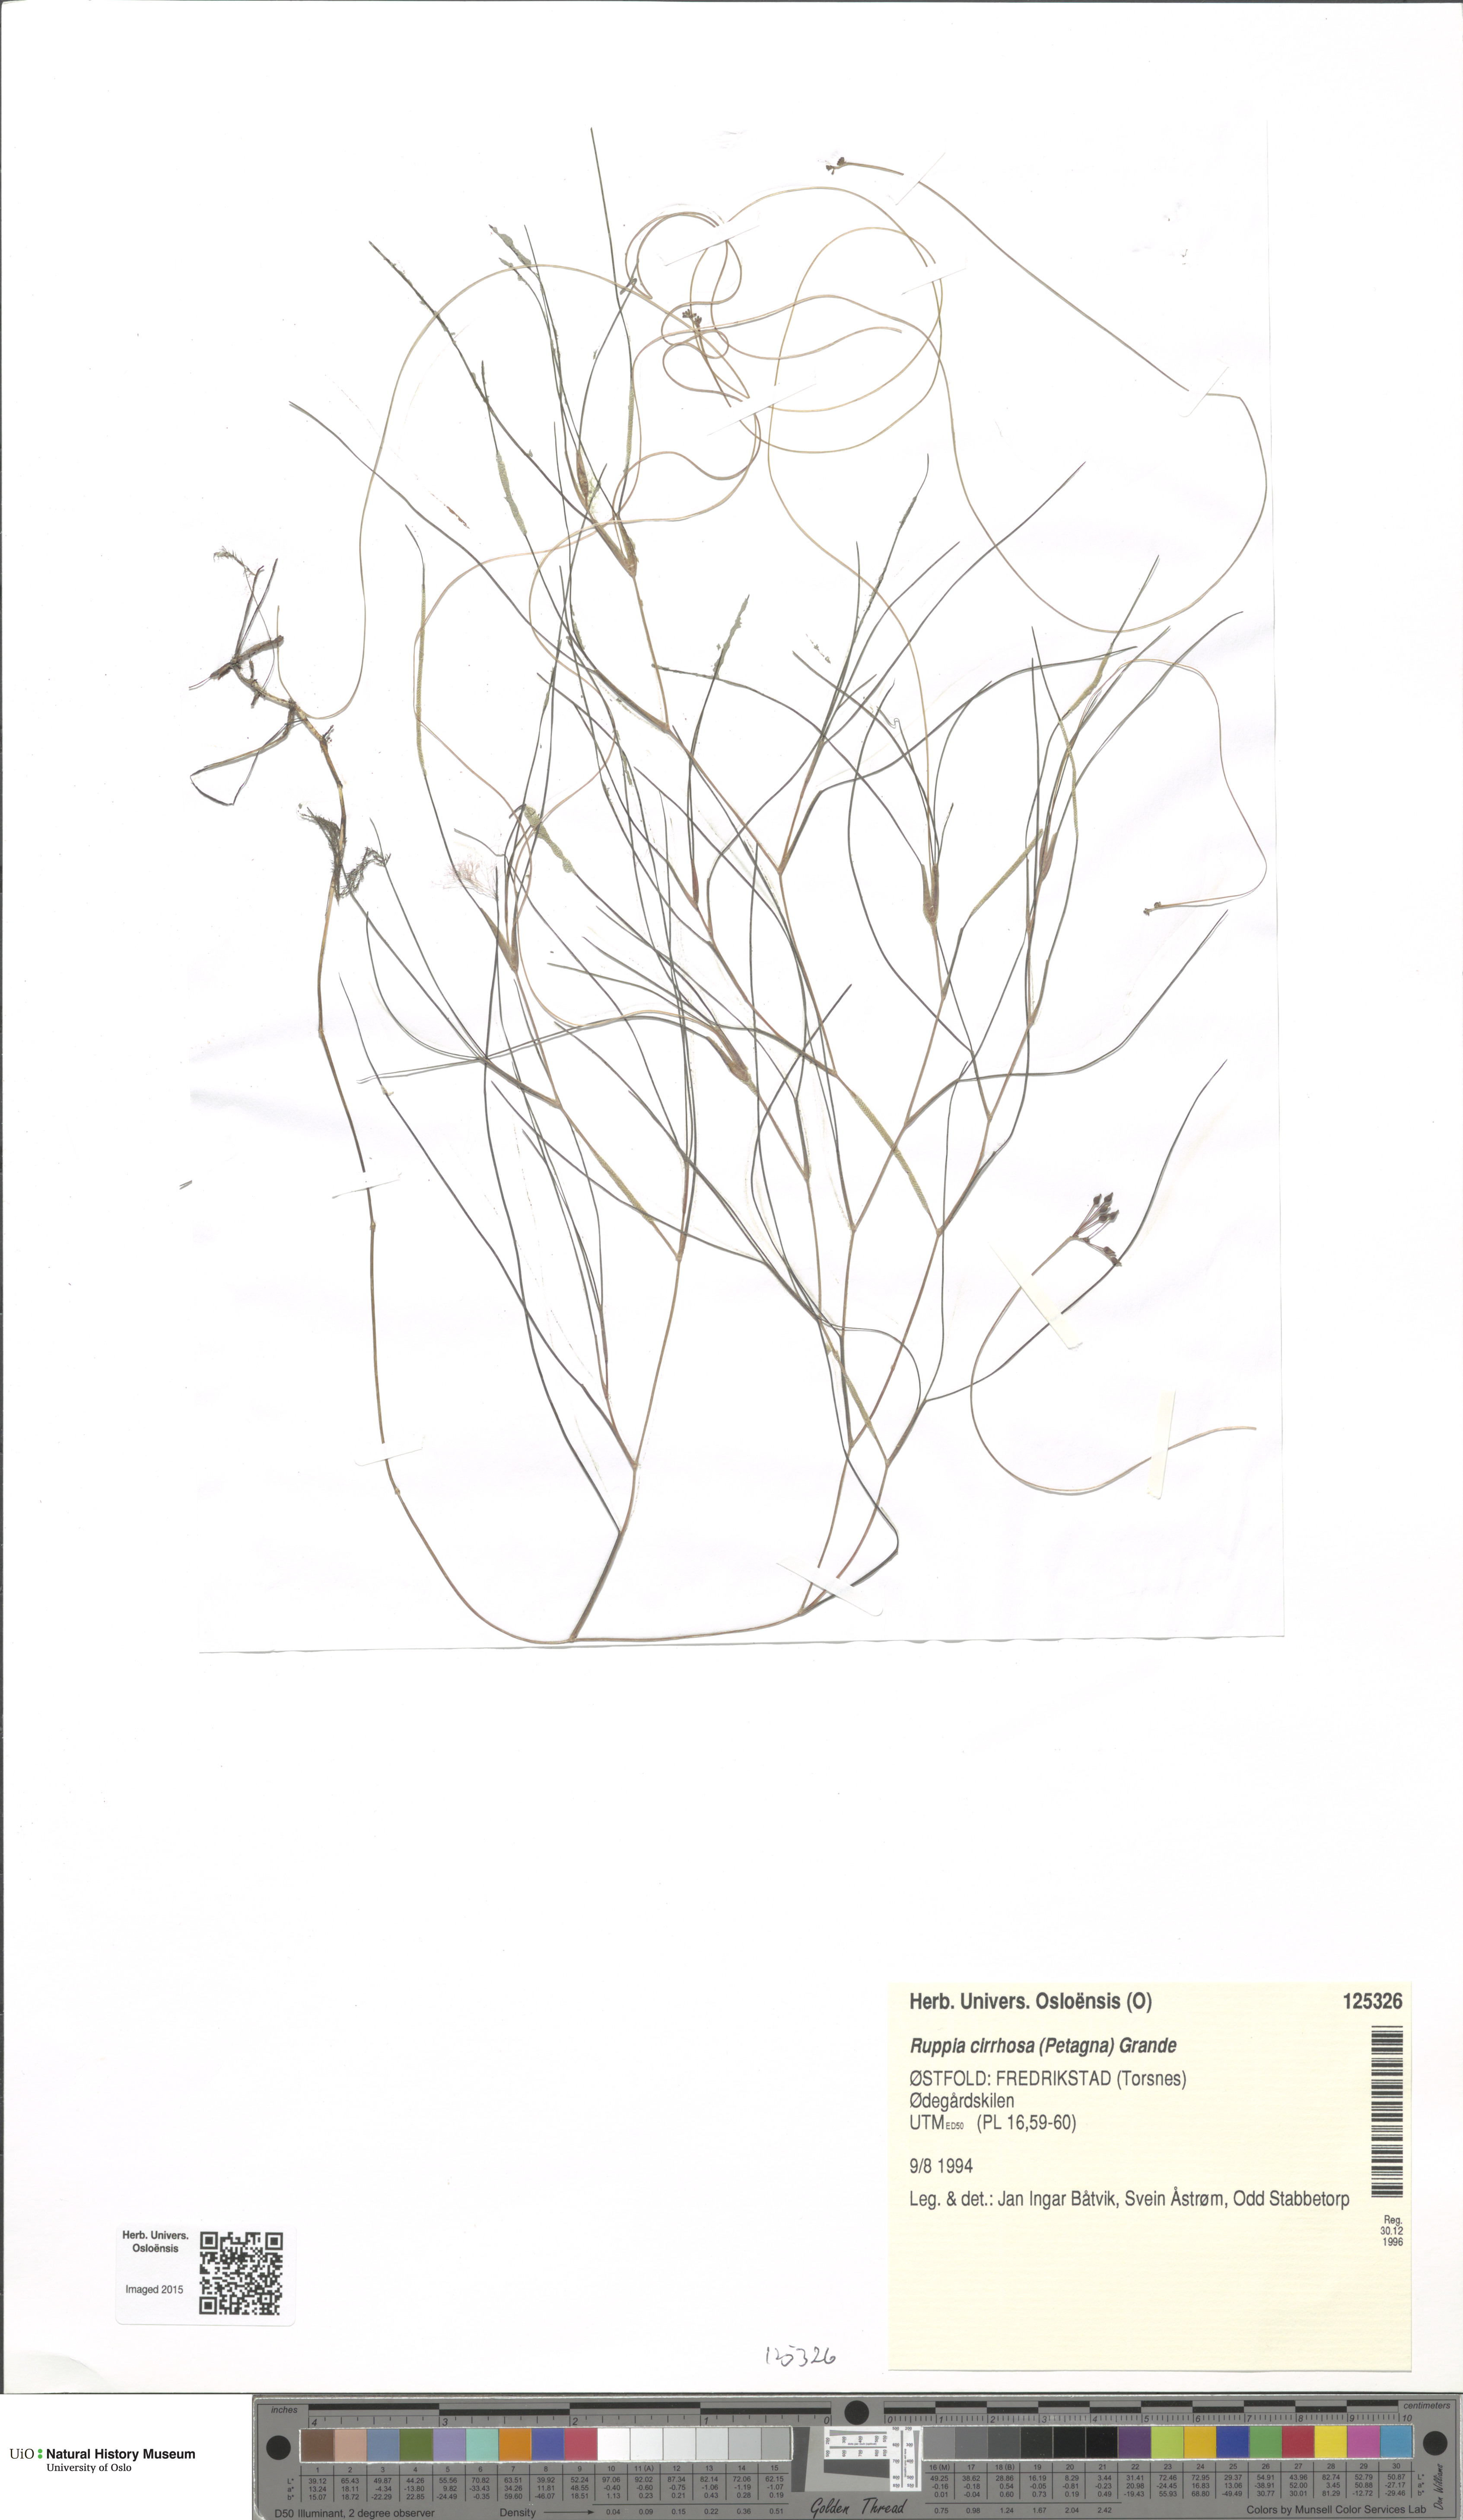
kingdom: Plantae
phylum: Tracheophyta
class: Liliopsida
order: Alismatales
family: Ruppiaceae
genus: Ruppia
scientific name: Ruppia cirrhosa
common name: Spiral tasselweed
